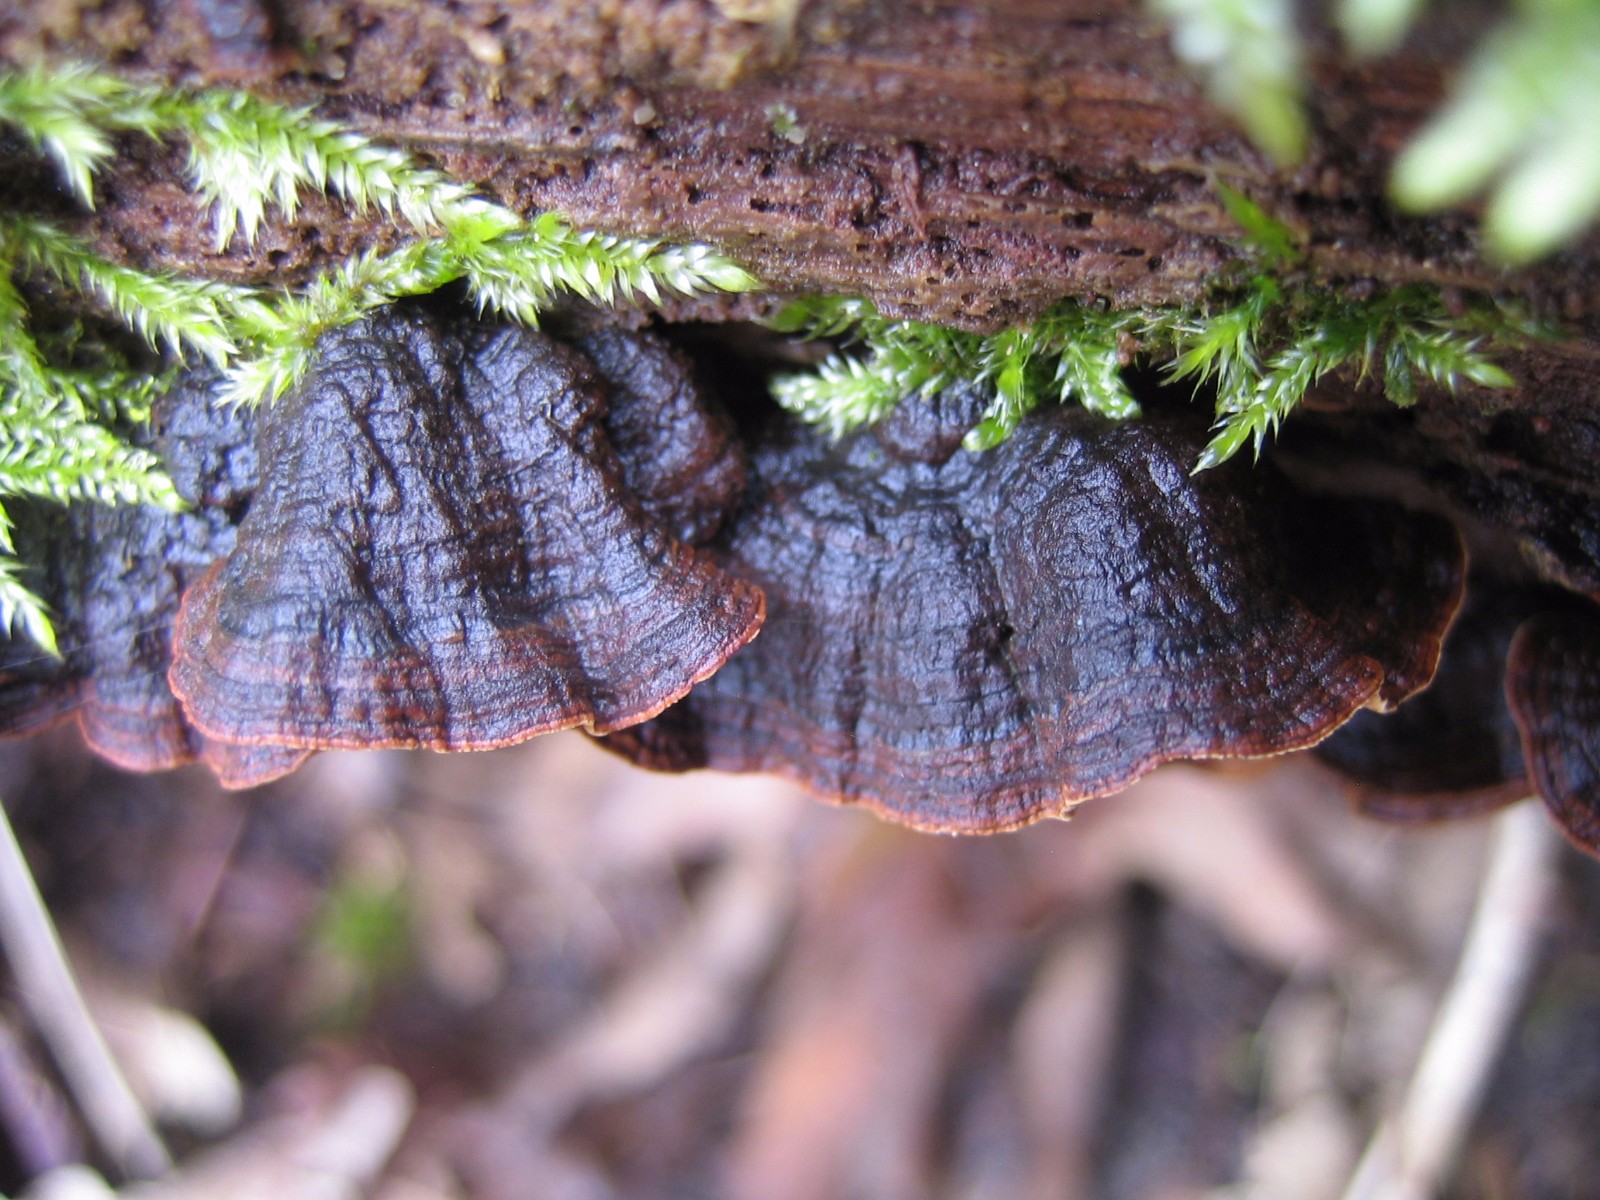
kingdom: Fungi
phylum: Basidiomycota
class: Agaricomycetes
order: Hymenochaetales
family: Hymenochaetaceae
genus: Hymenochaete
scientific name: Hymenochaete rubiginosa
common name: stiv ruslædersvamp
